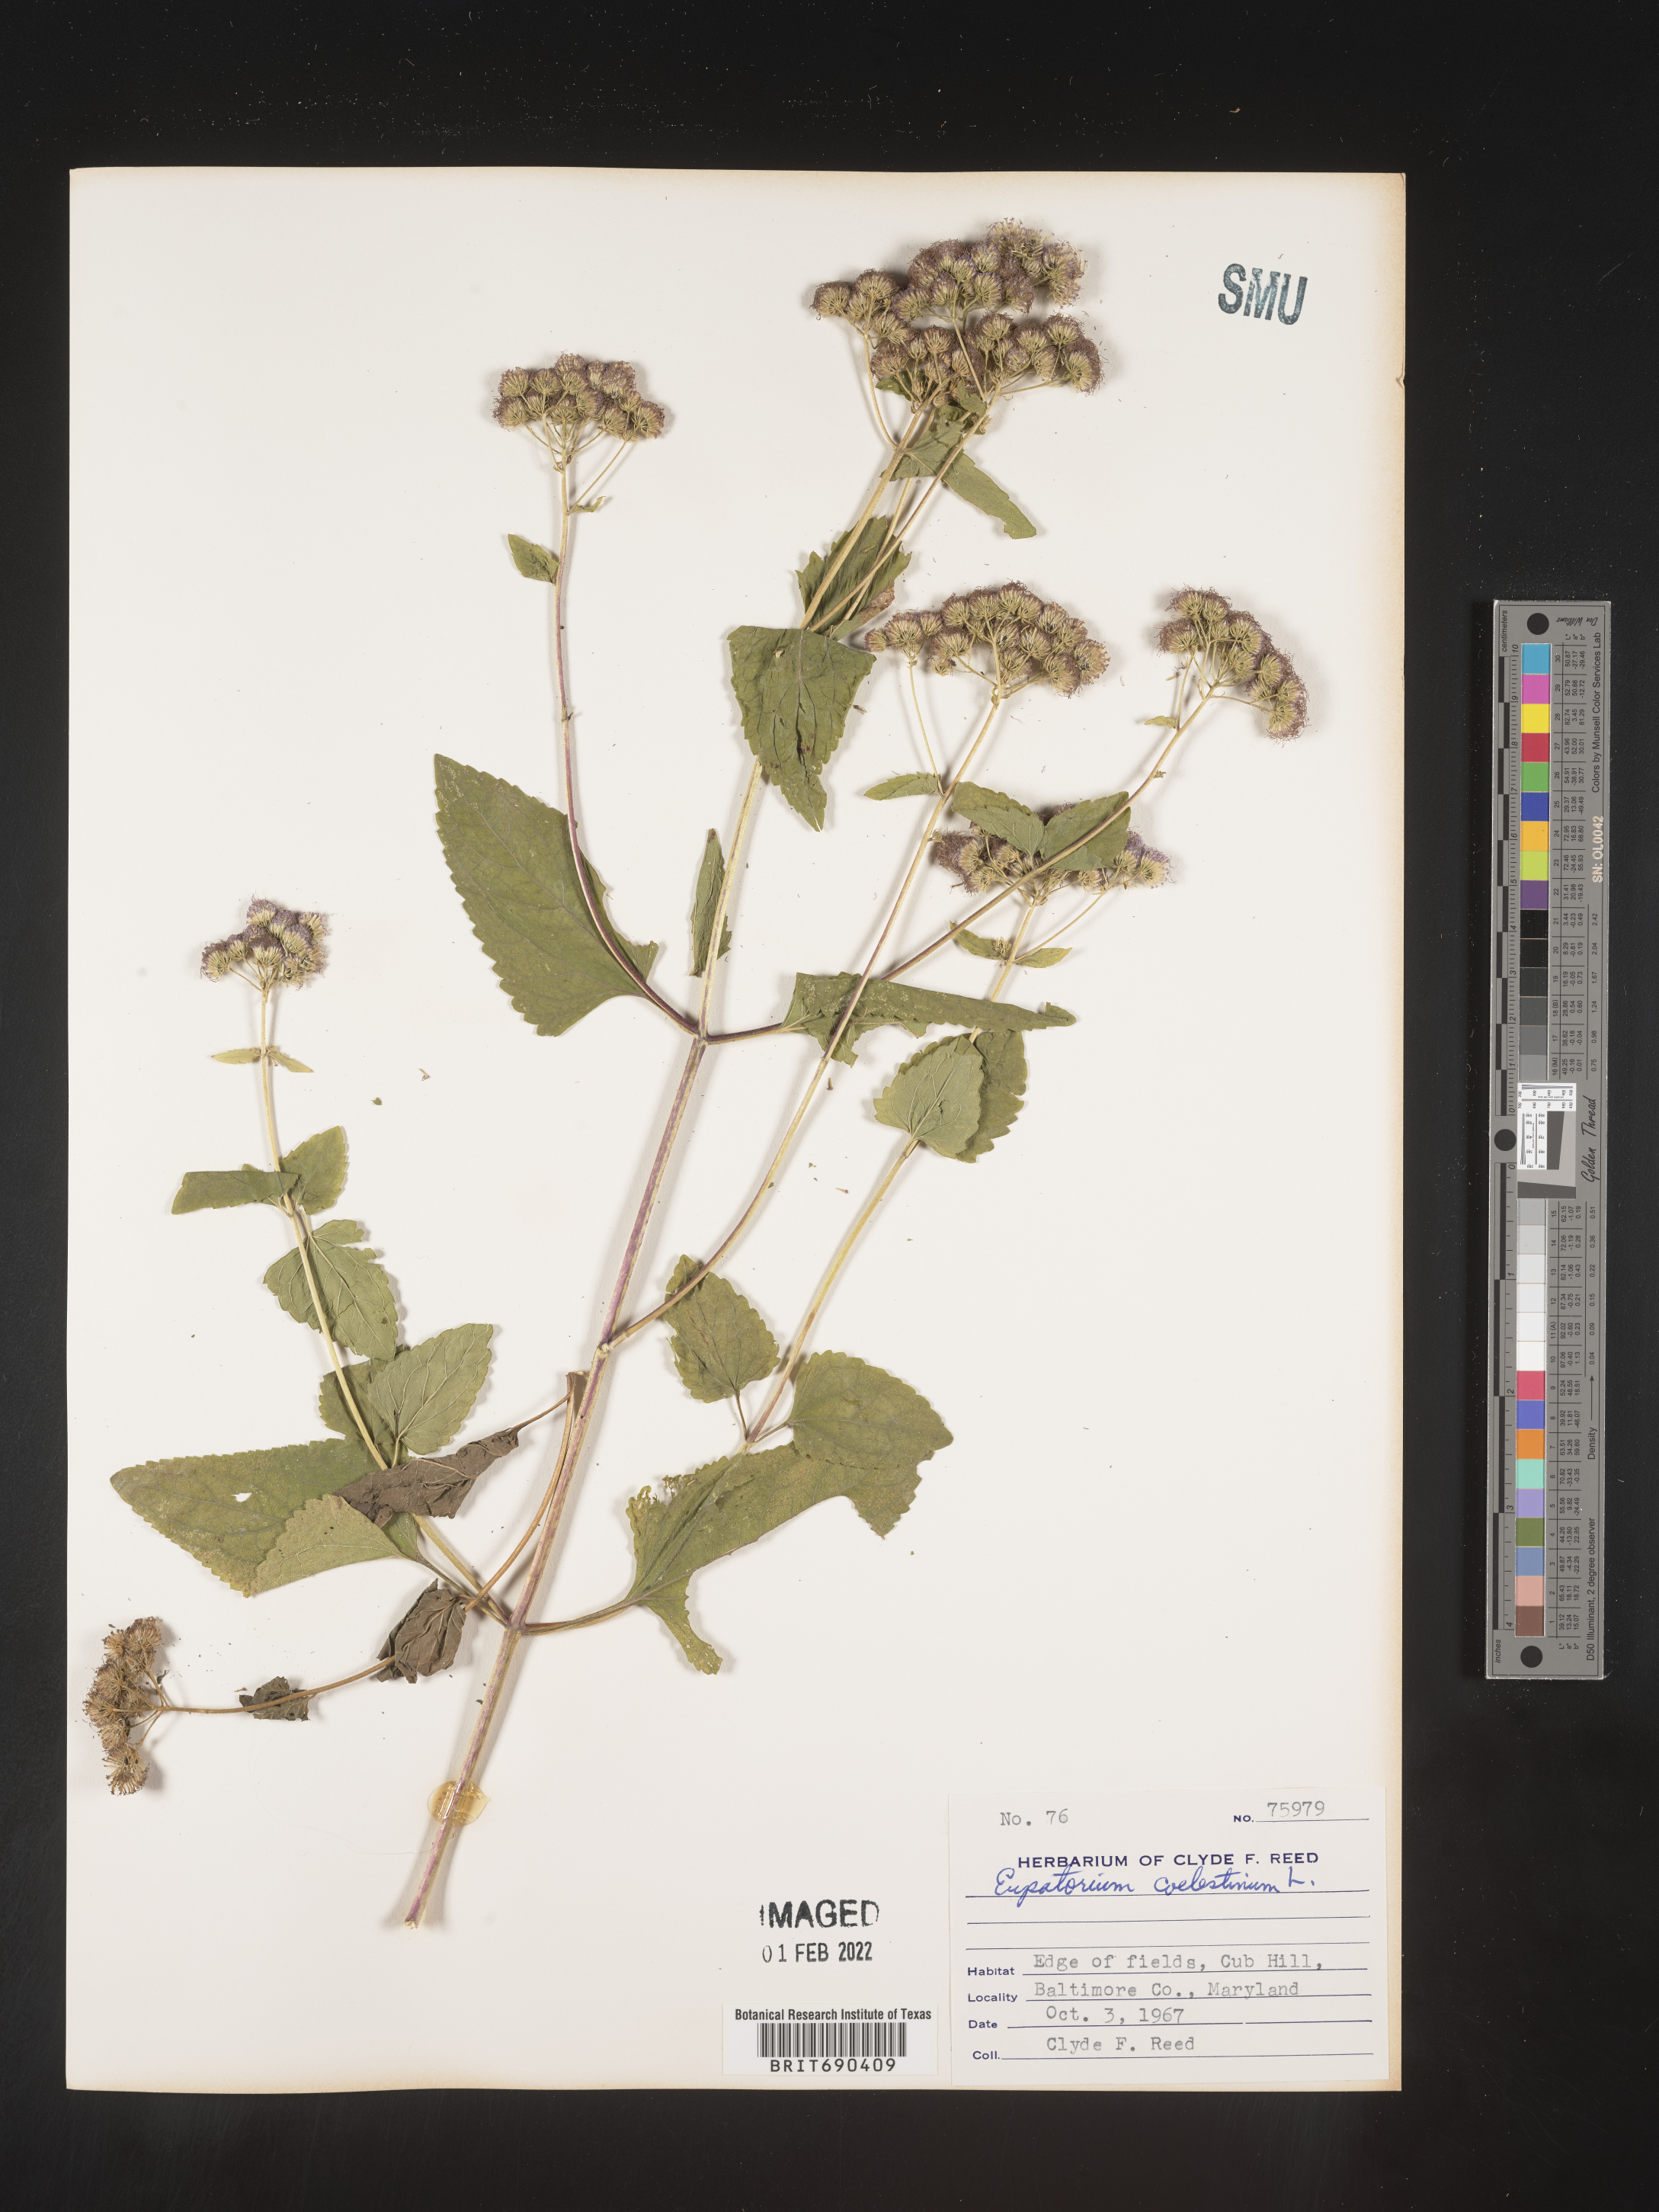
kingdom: Plantae
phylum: Tracheophyta
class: Magnoliopsida
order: Asterales
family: Asteraceae
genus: Conoclinium
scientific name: Conoclinium coelestinum
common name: Blue mistflower
